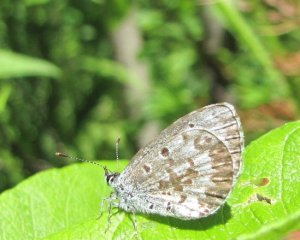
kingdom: Animalia
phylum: Arthropoda
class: Insecta
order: Lepidoptera
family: Lycaenidae
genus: Celastrina
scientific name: Celastrina
